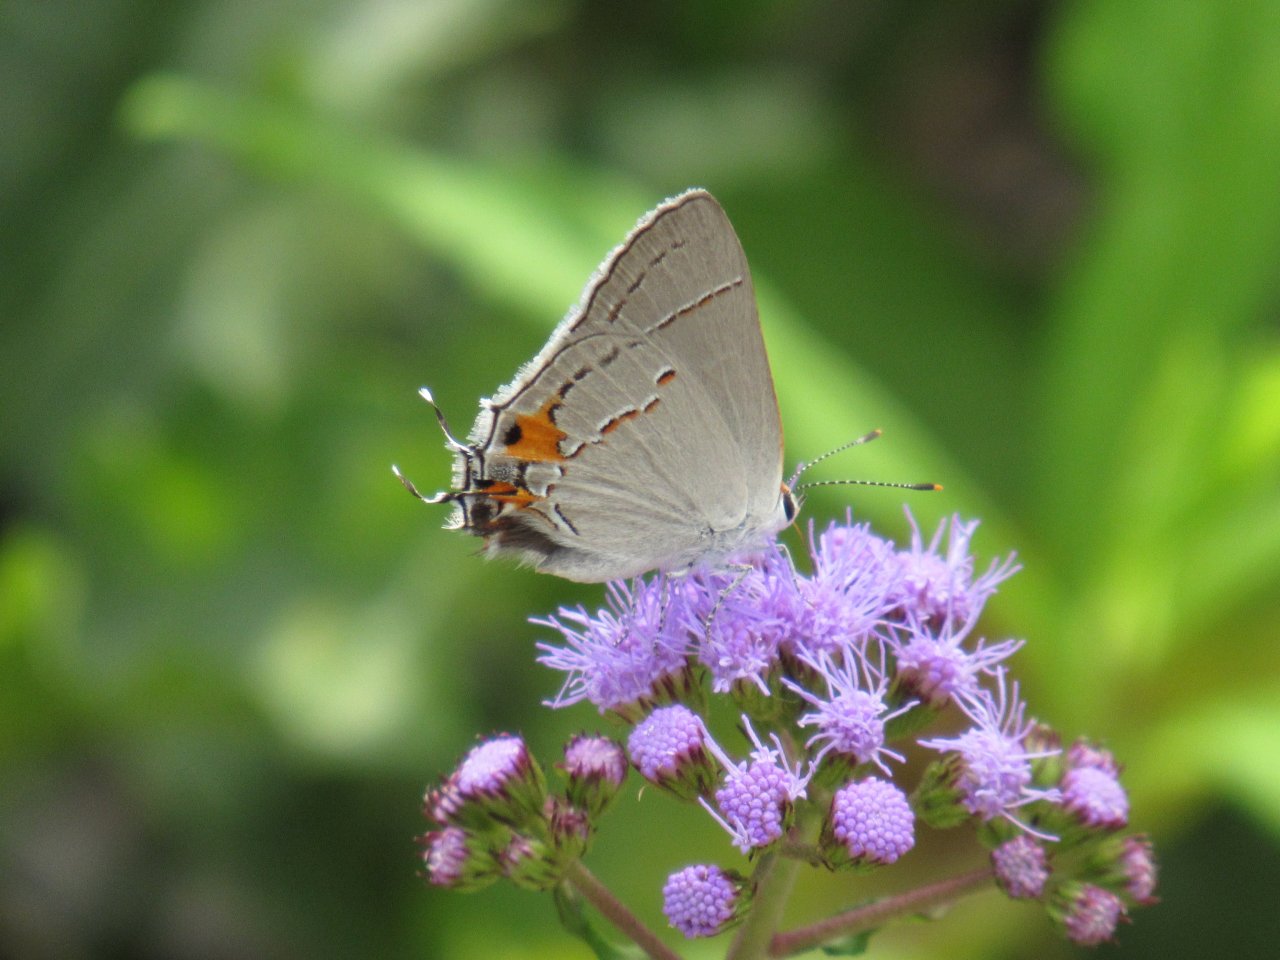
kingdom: Animalia
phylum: Arthropoda
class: Insecta
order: Lepidoptera
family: Lycaenidae
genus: Strymon
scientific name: Strymon melinus
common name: Gray Hairstreak
